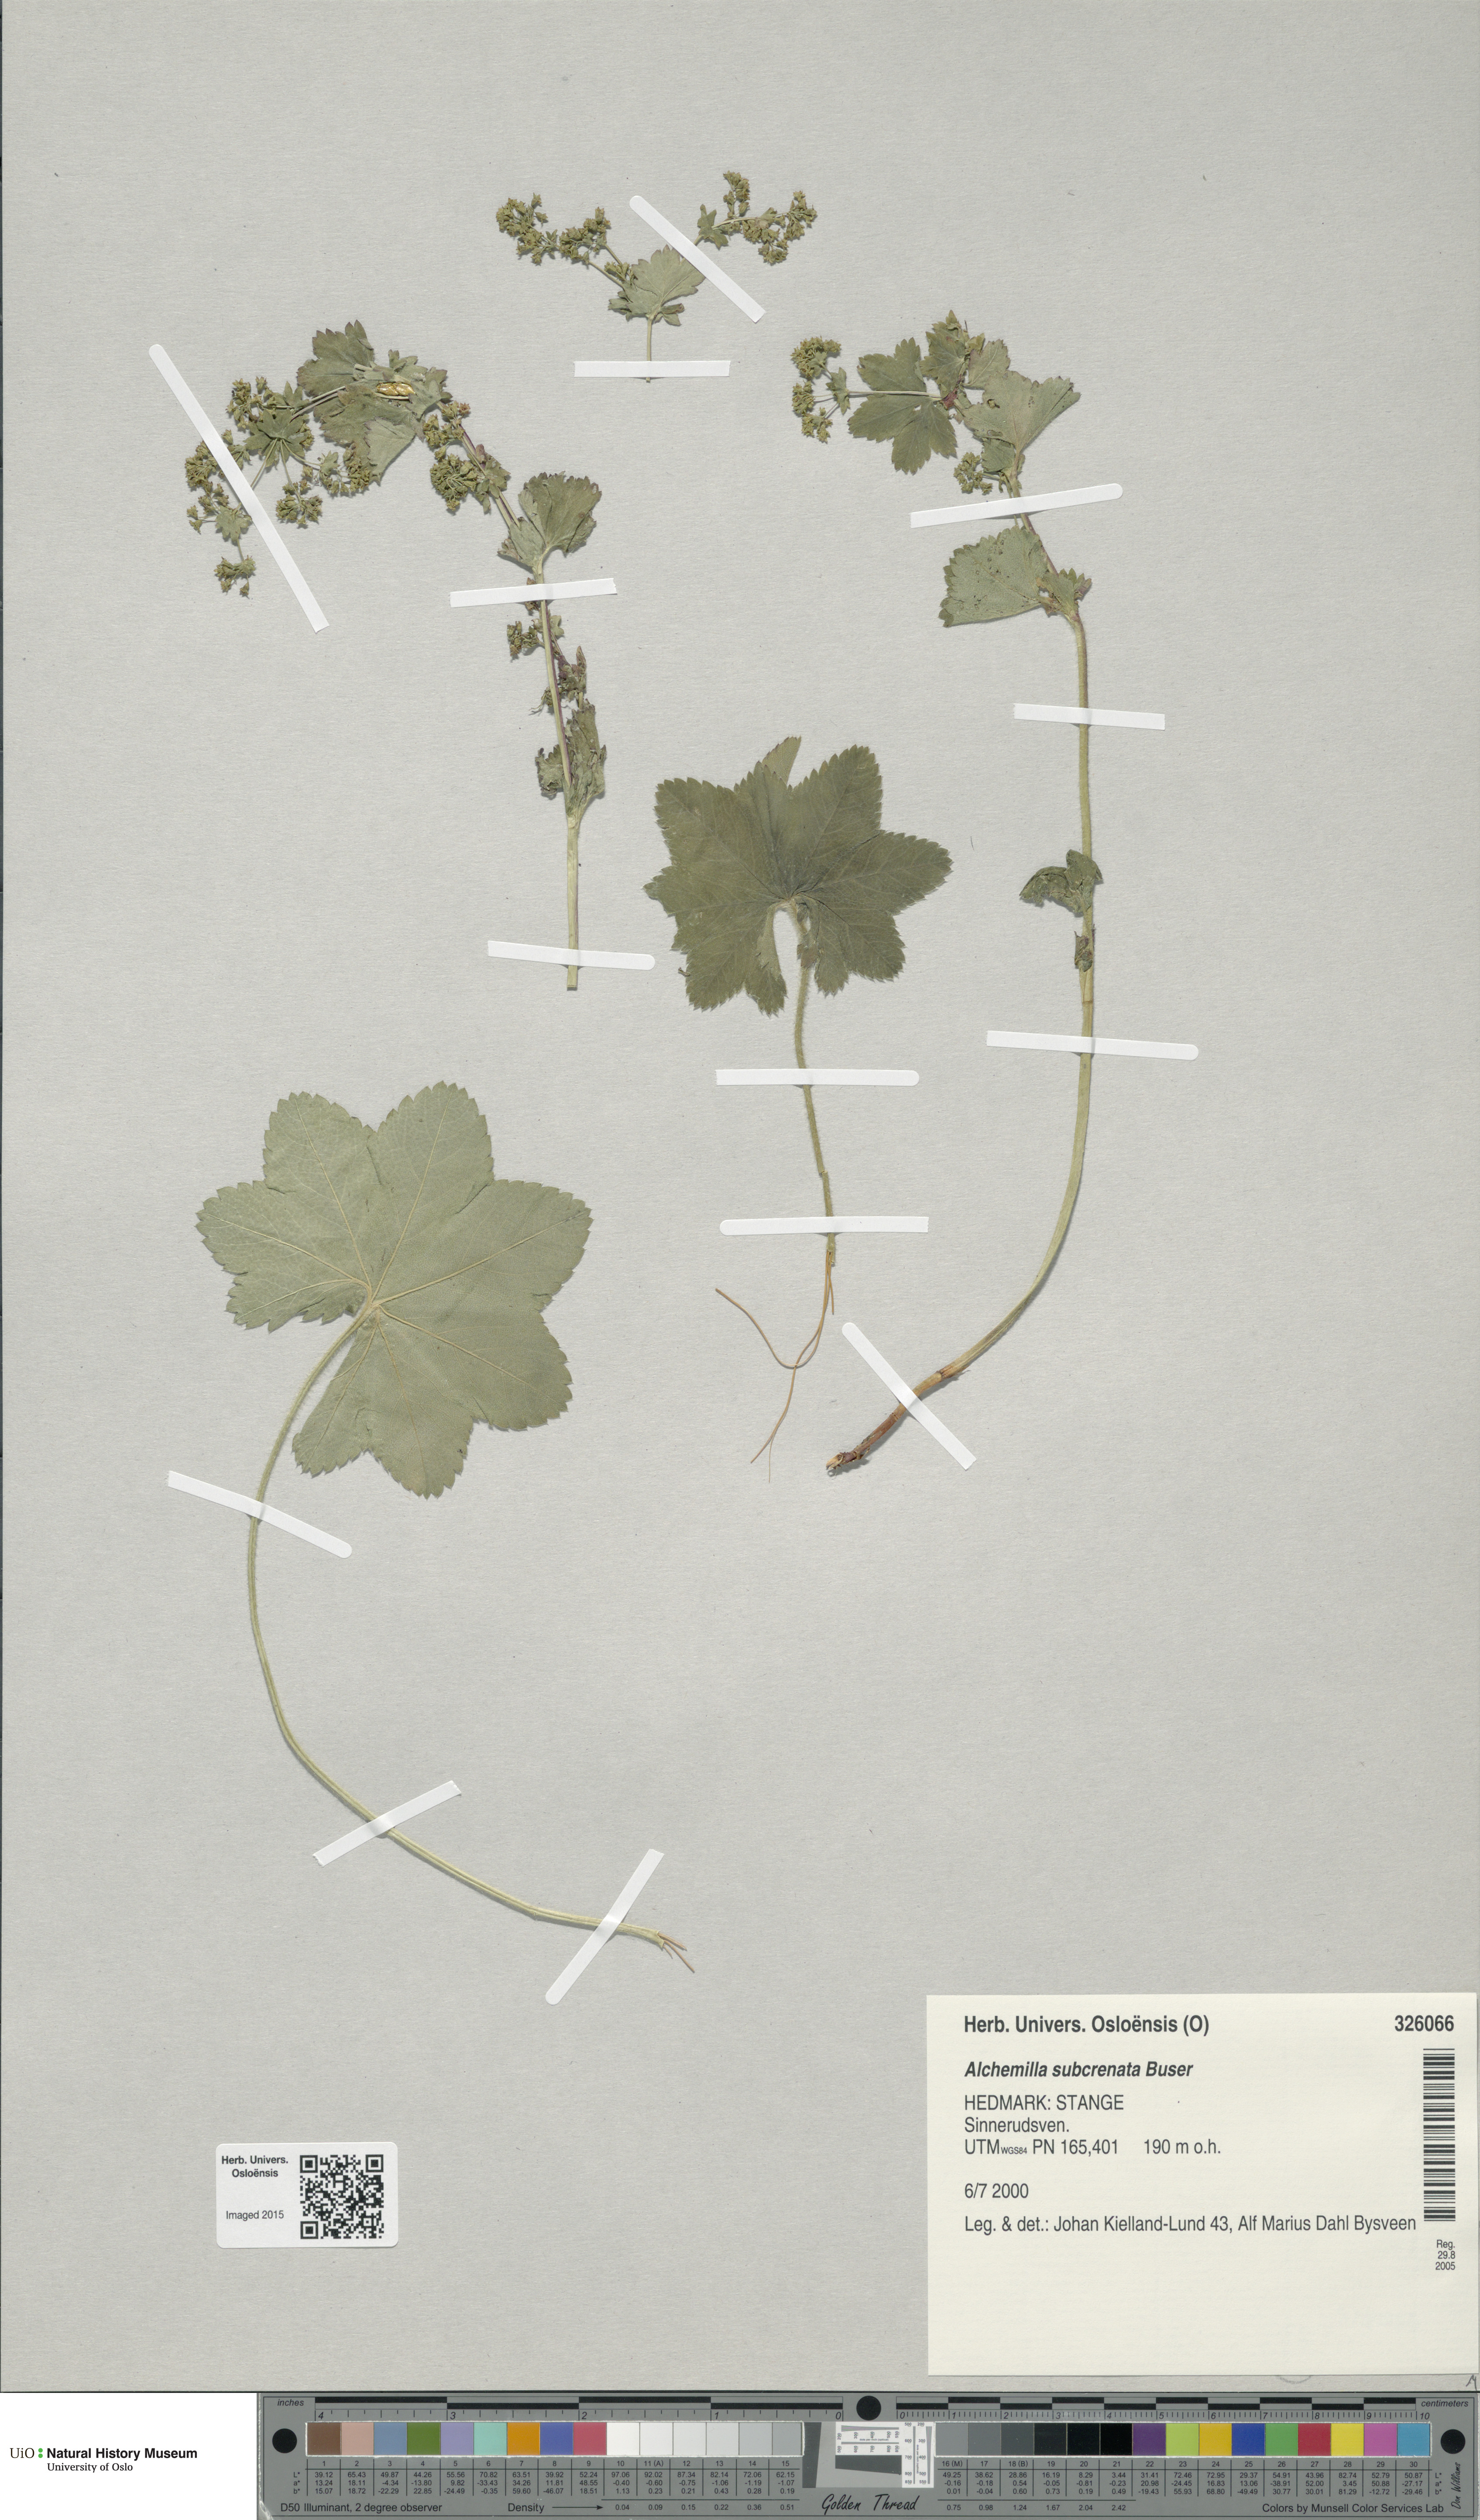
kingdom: Plantae
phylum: Tracheophyta
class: Magnoliopsida
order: Rosales
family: Rosaceae
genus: Alchemilla
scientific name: Alchemilla subcrenata
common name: Broadtooth lady's mantle
